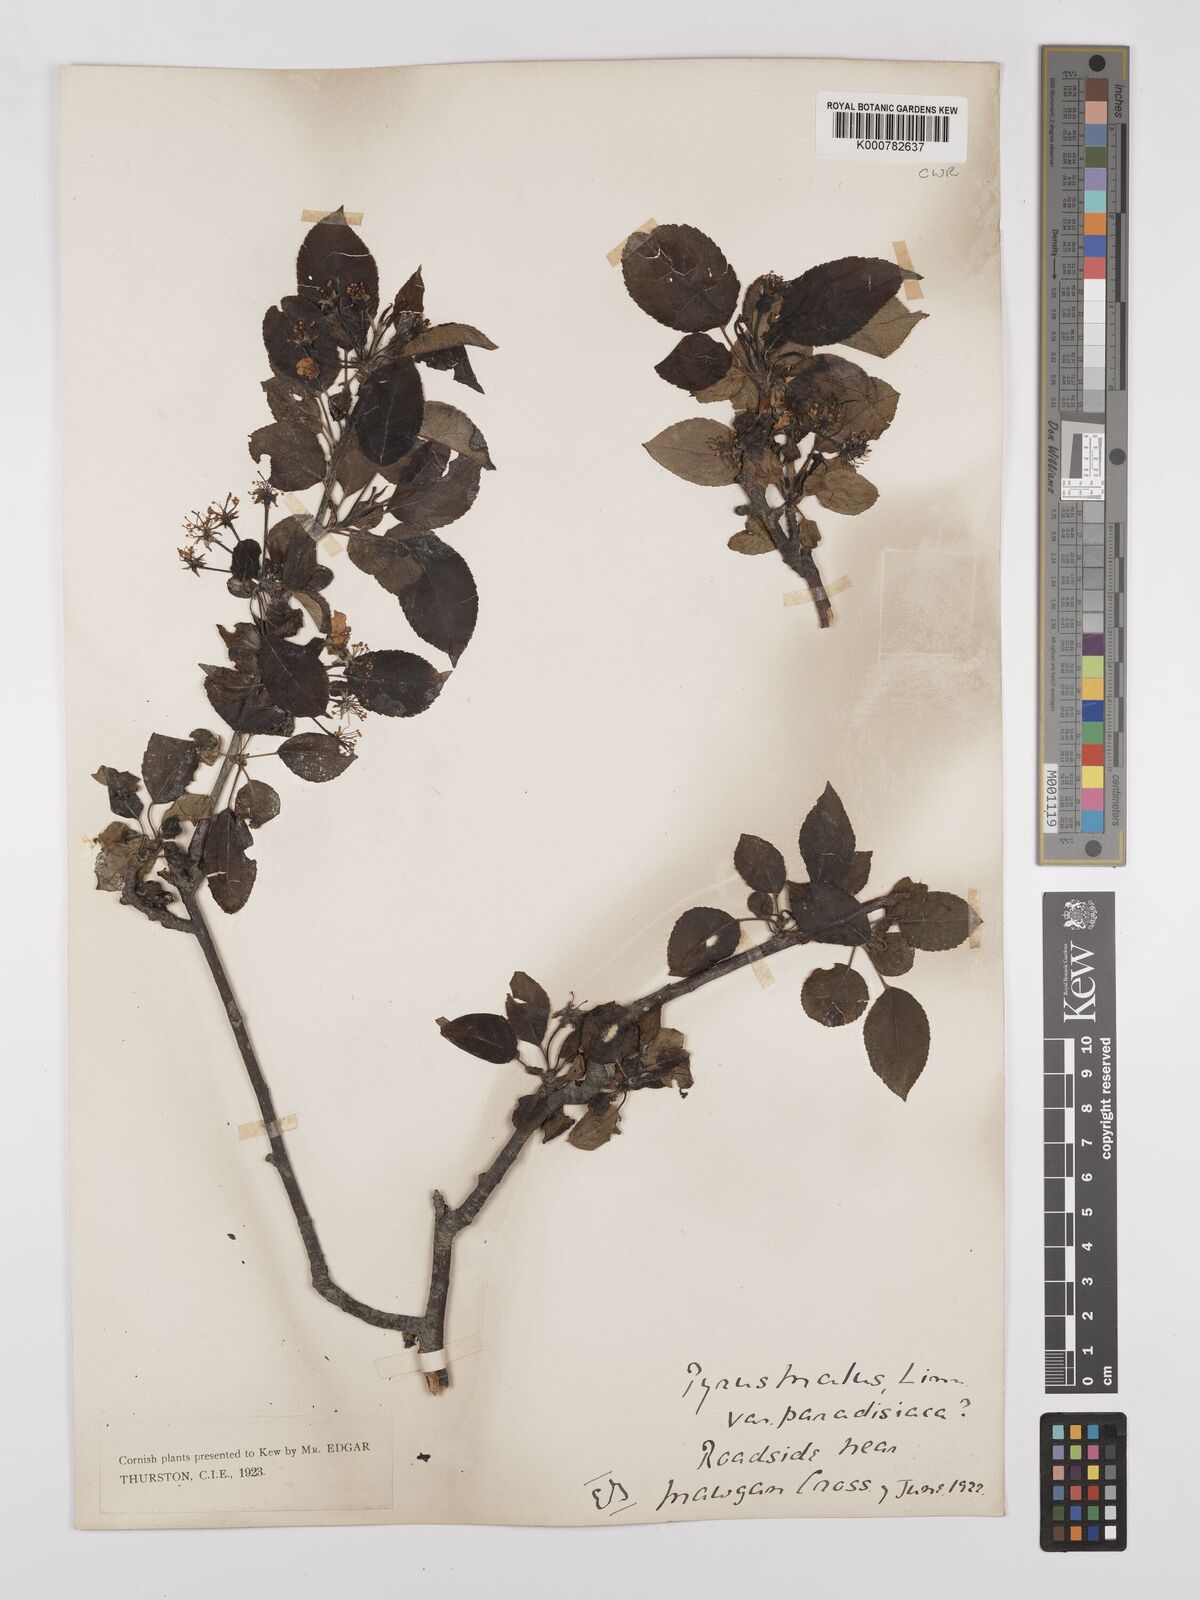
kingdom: Plantae
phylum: Tracheophyta
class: Magnoliopsida
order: Rosales
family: Rosaceae
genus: Malus
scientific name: Malus domestica
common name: Apple
